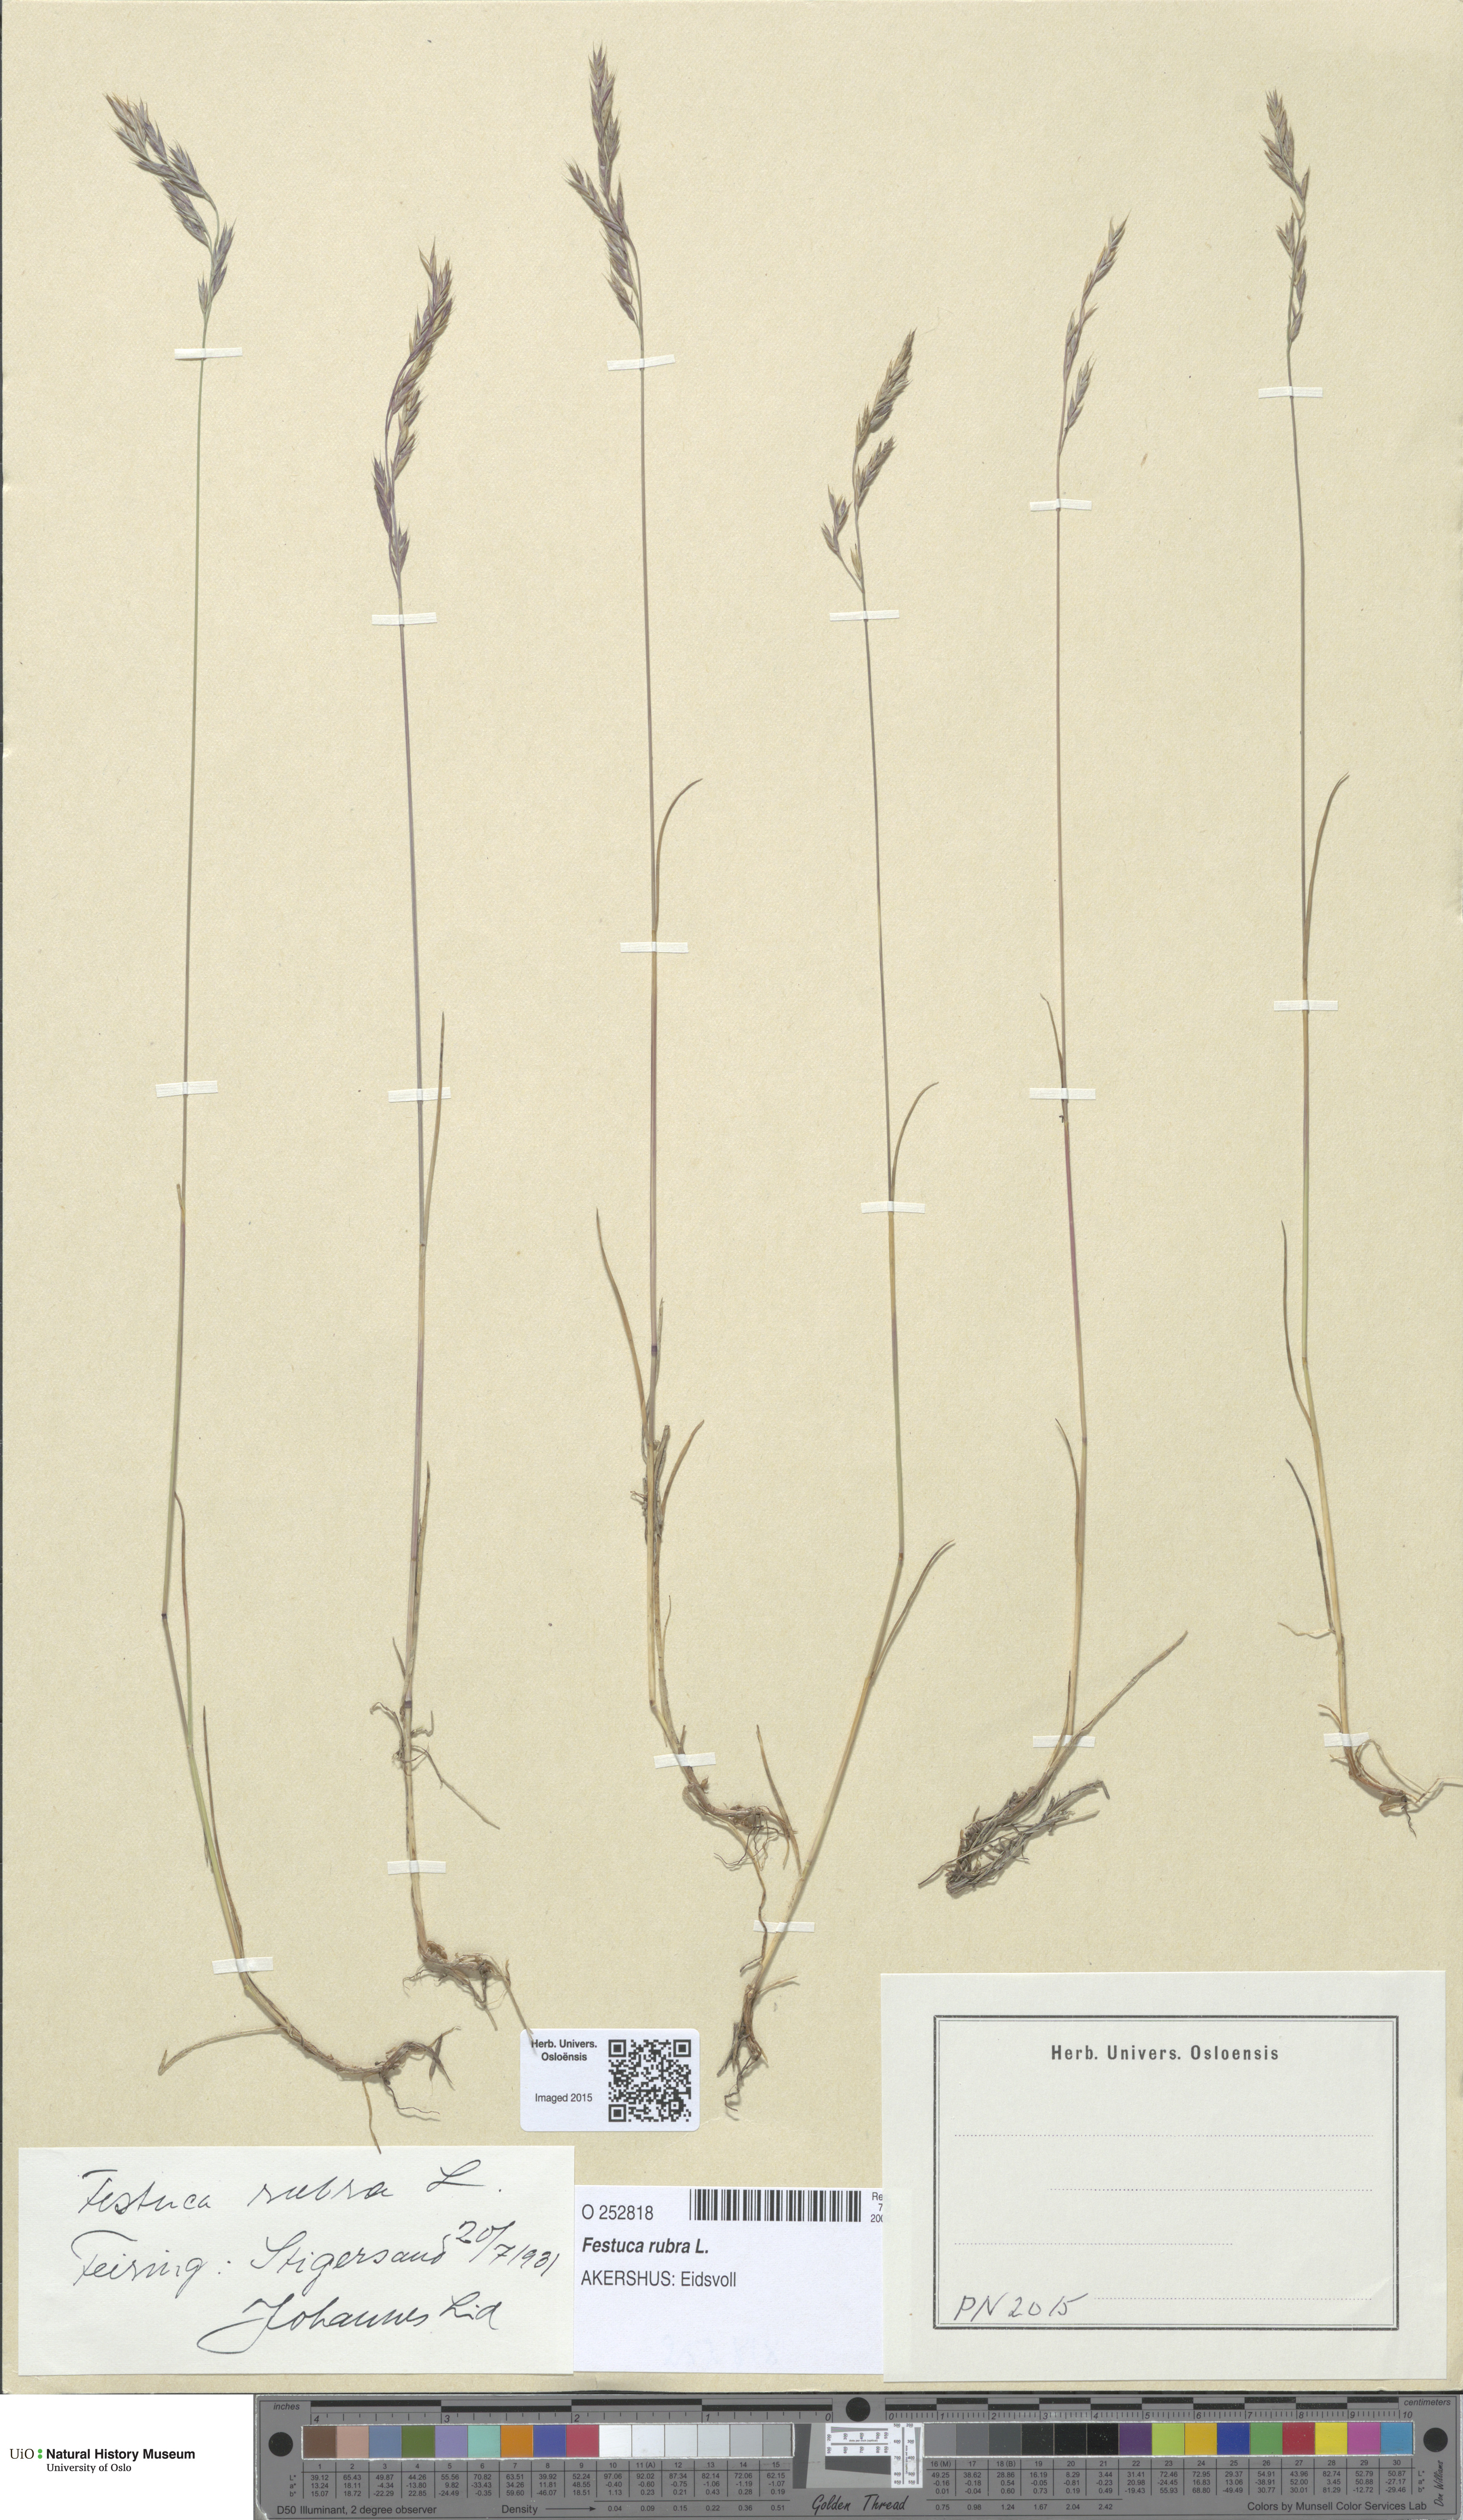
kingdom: Plantae
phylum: Tracheophyta
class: Liliopsida
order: Poales
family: Poaceae
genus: Festuca
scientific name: Festuca rubra
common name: Red fescue
